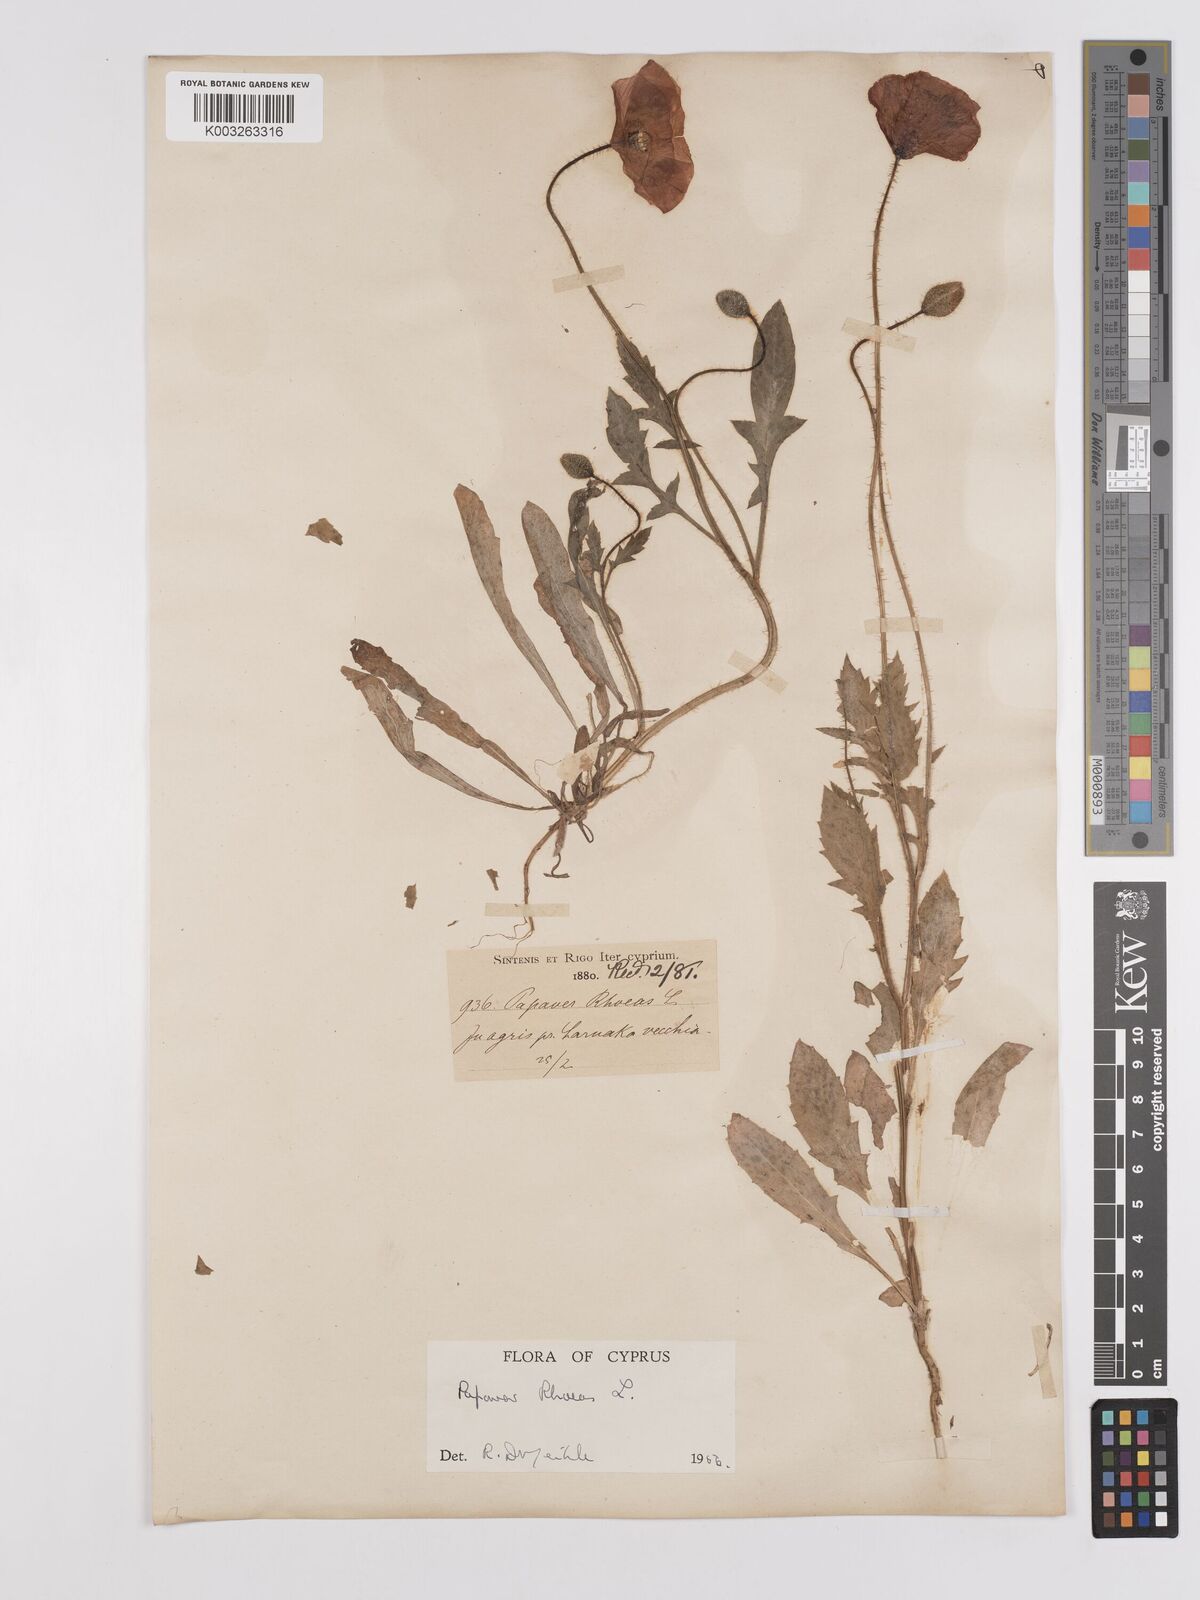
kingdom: Plantae
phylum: Tracheophyta
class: Magnoliopsida
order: Ranunculales
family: Papaveraceae
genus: Papaver
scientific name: Papaver rhoeas
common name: Corn poppy
